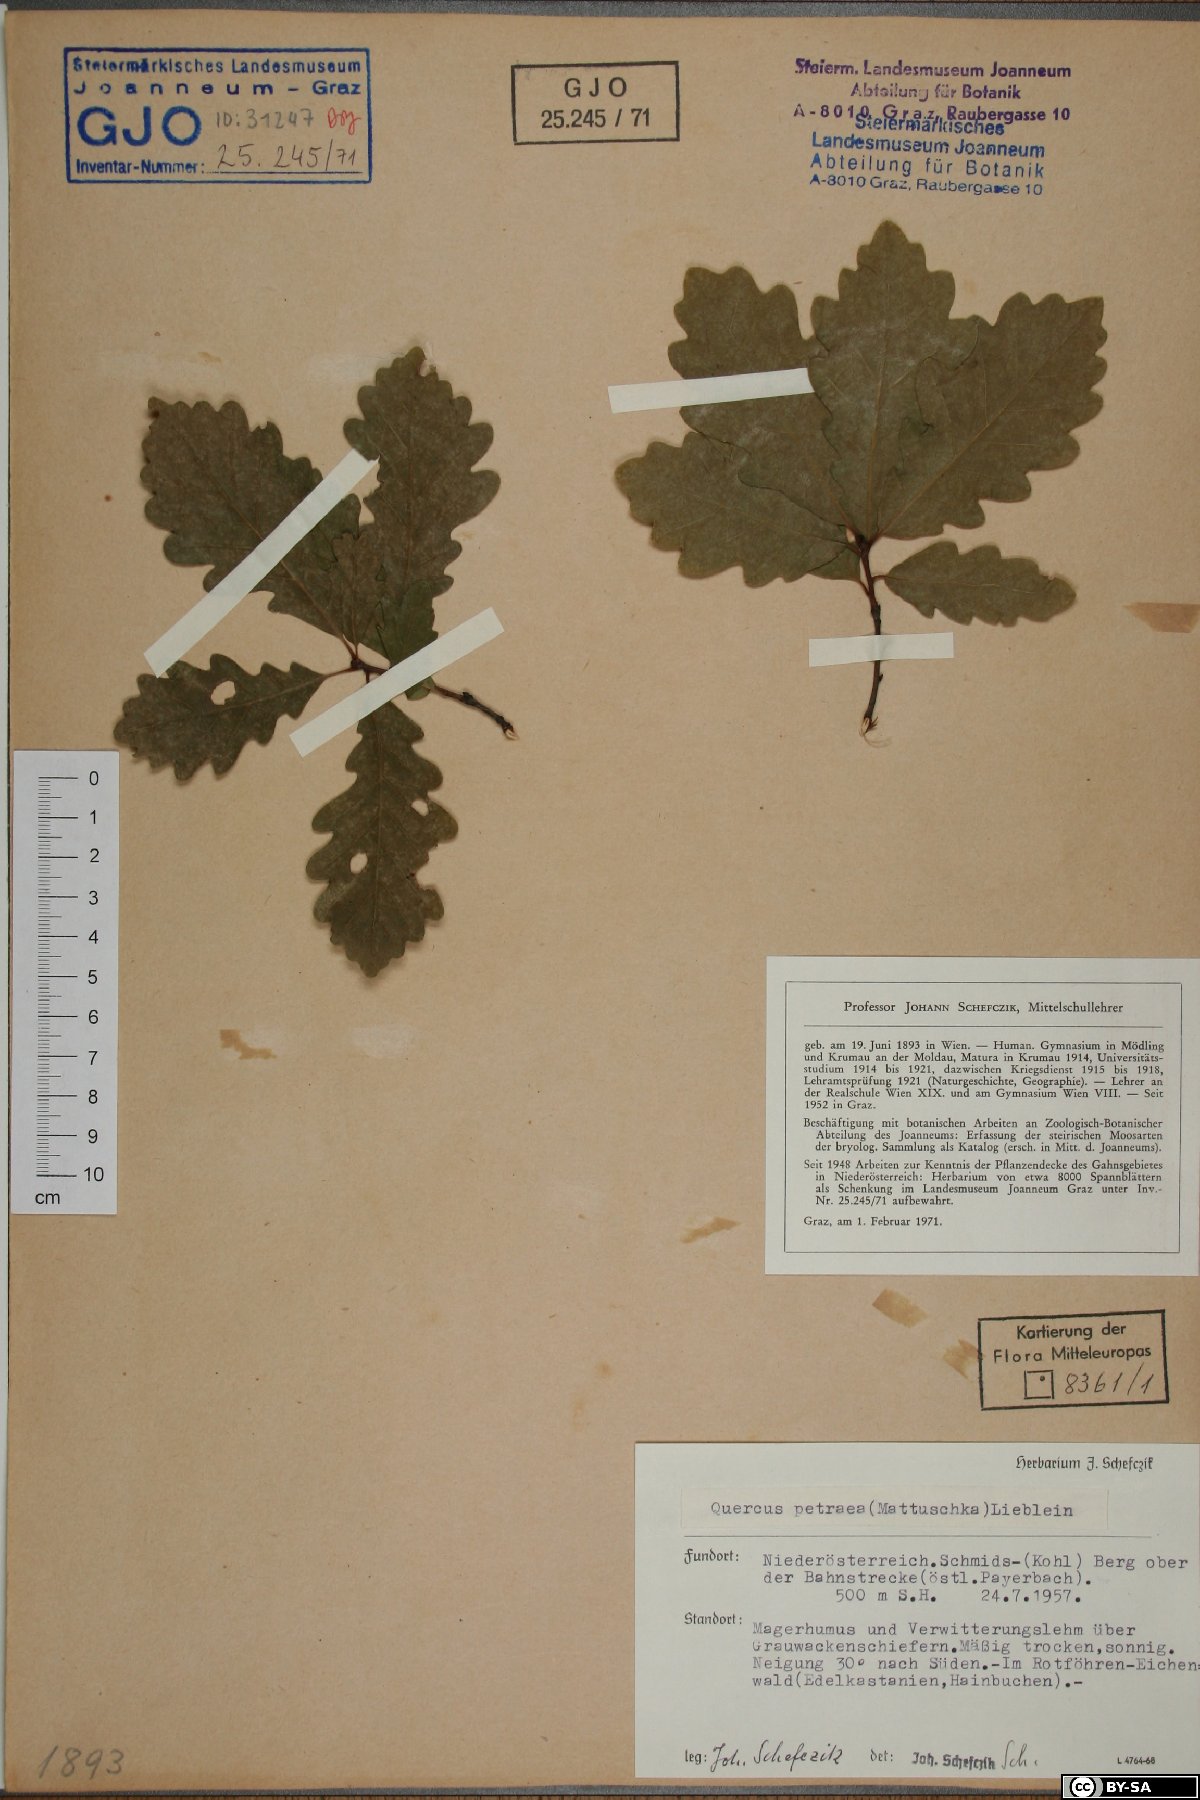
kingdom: Plantae
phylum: Tracheophyta
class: Magnoliopsida
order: Fagales
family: Fagaceae
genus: Quercus
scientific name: Quercus petraea
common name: Sessile oak
